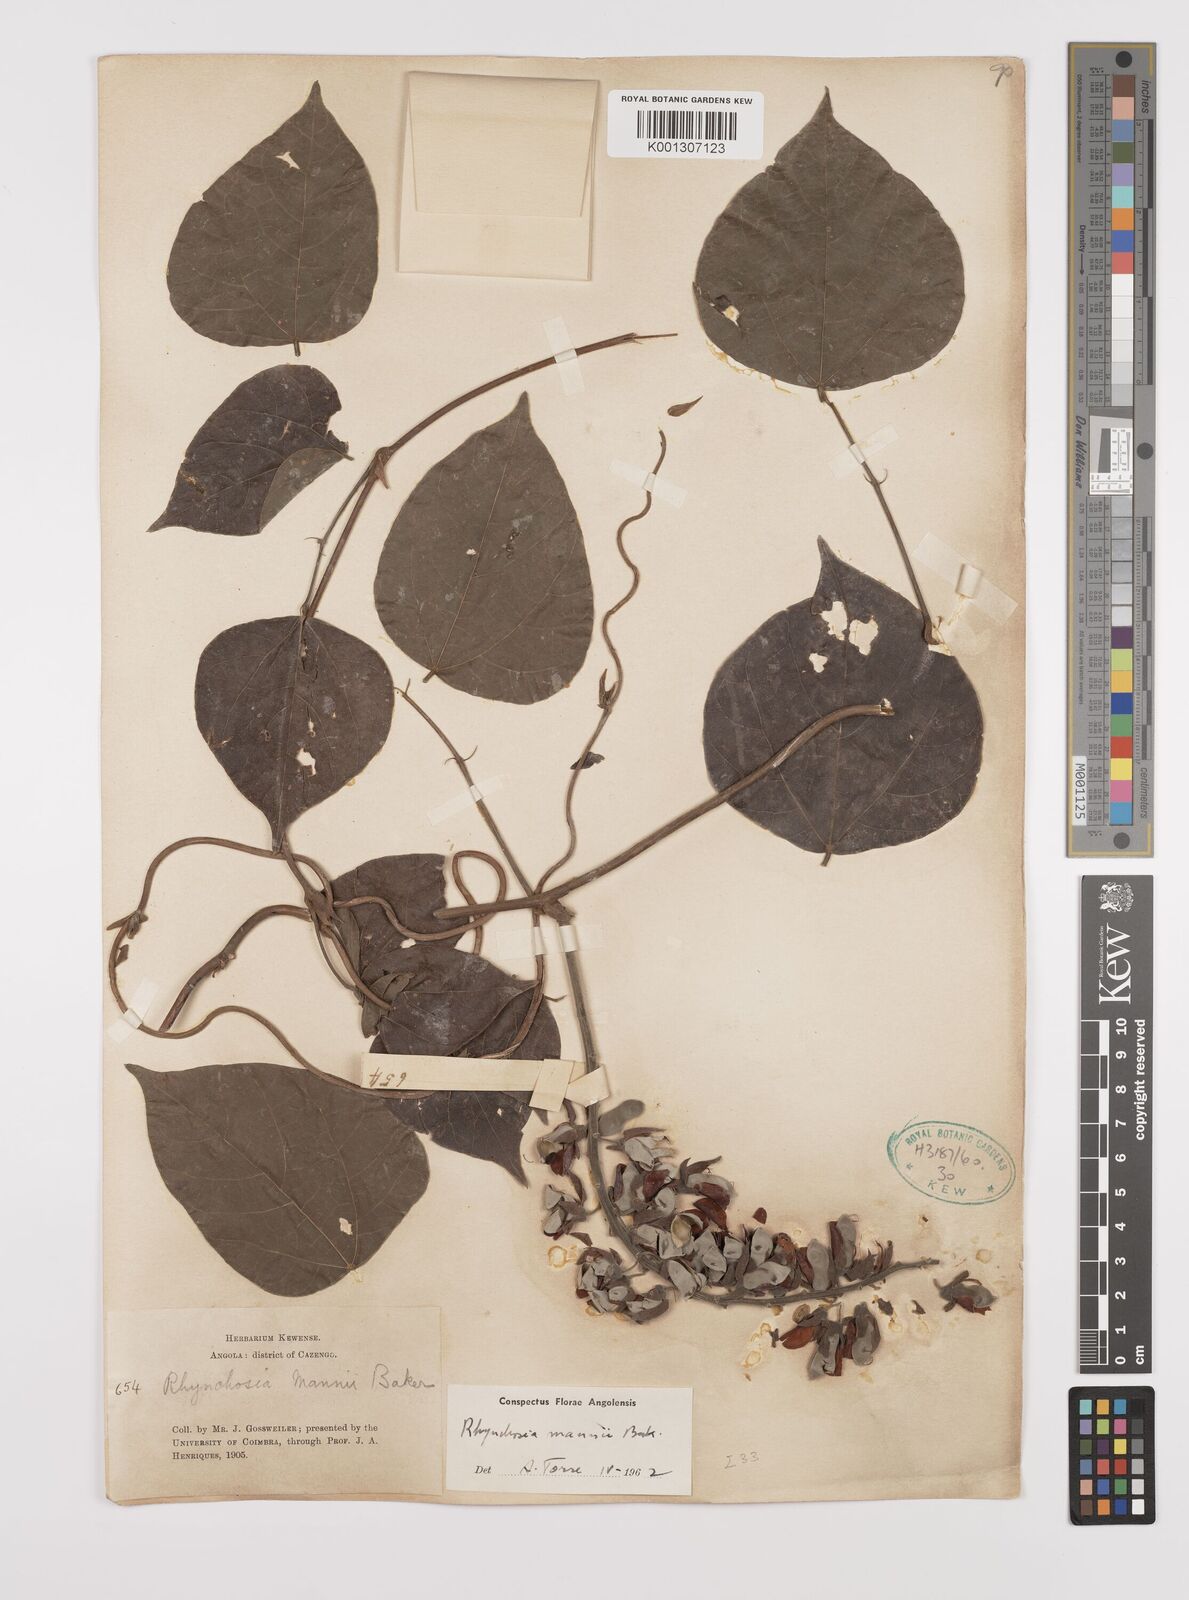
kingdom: Plantae
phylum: Tracheophyta
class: Magnoliopsida
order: Fabales
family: Fabaceae
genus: Rhynchosia
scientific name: Rhynchosia mannii
